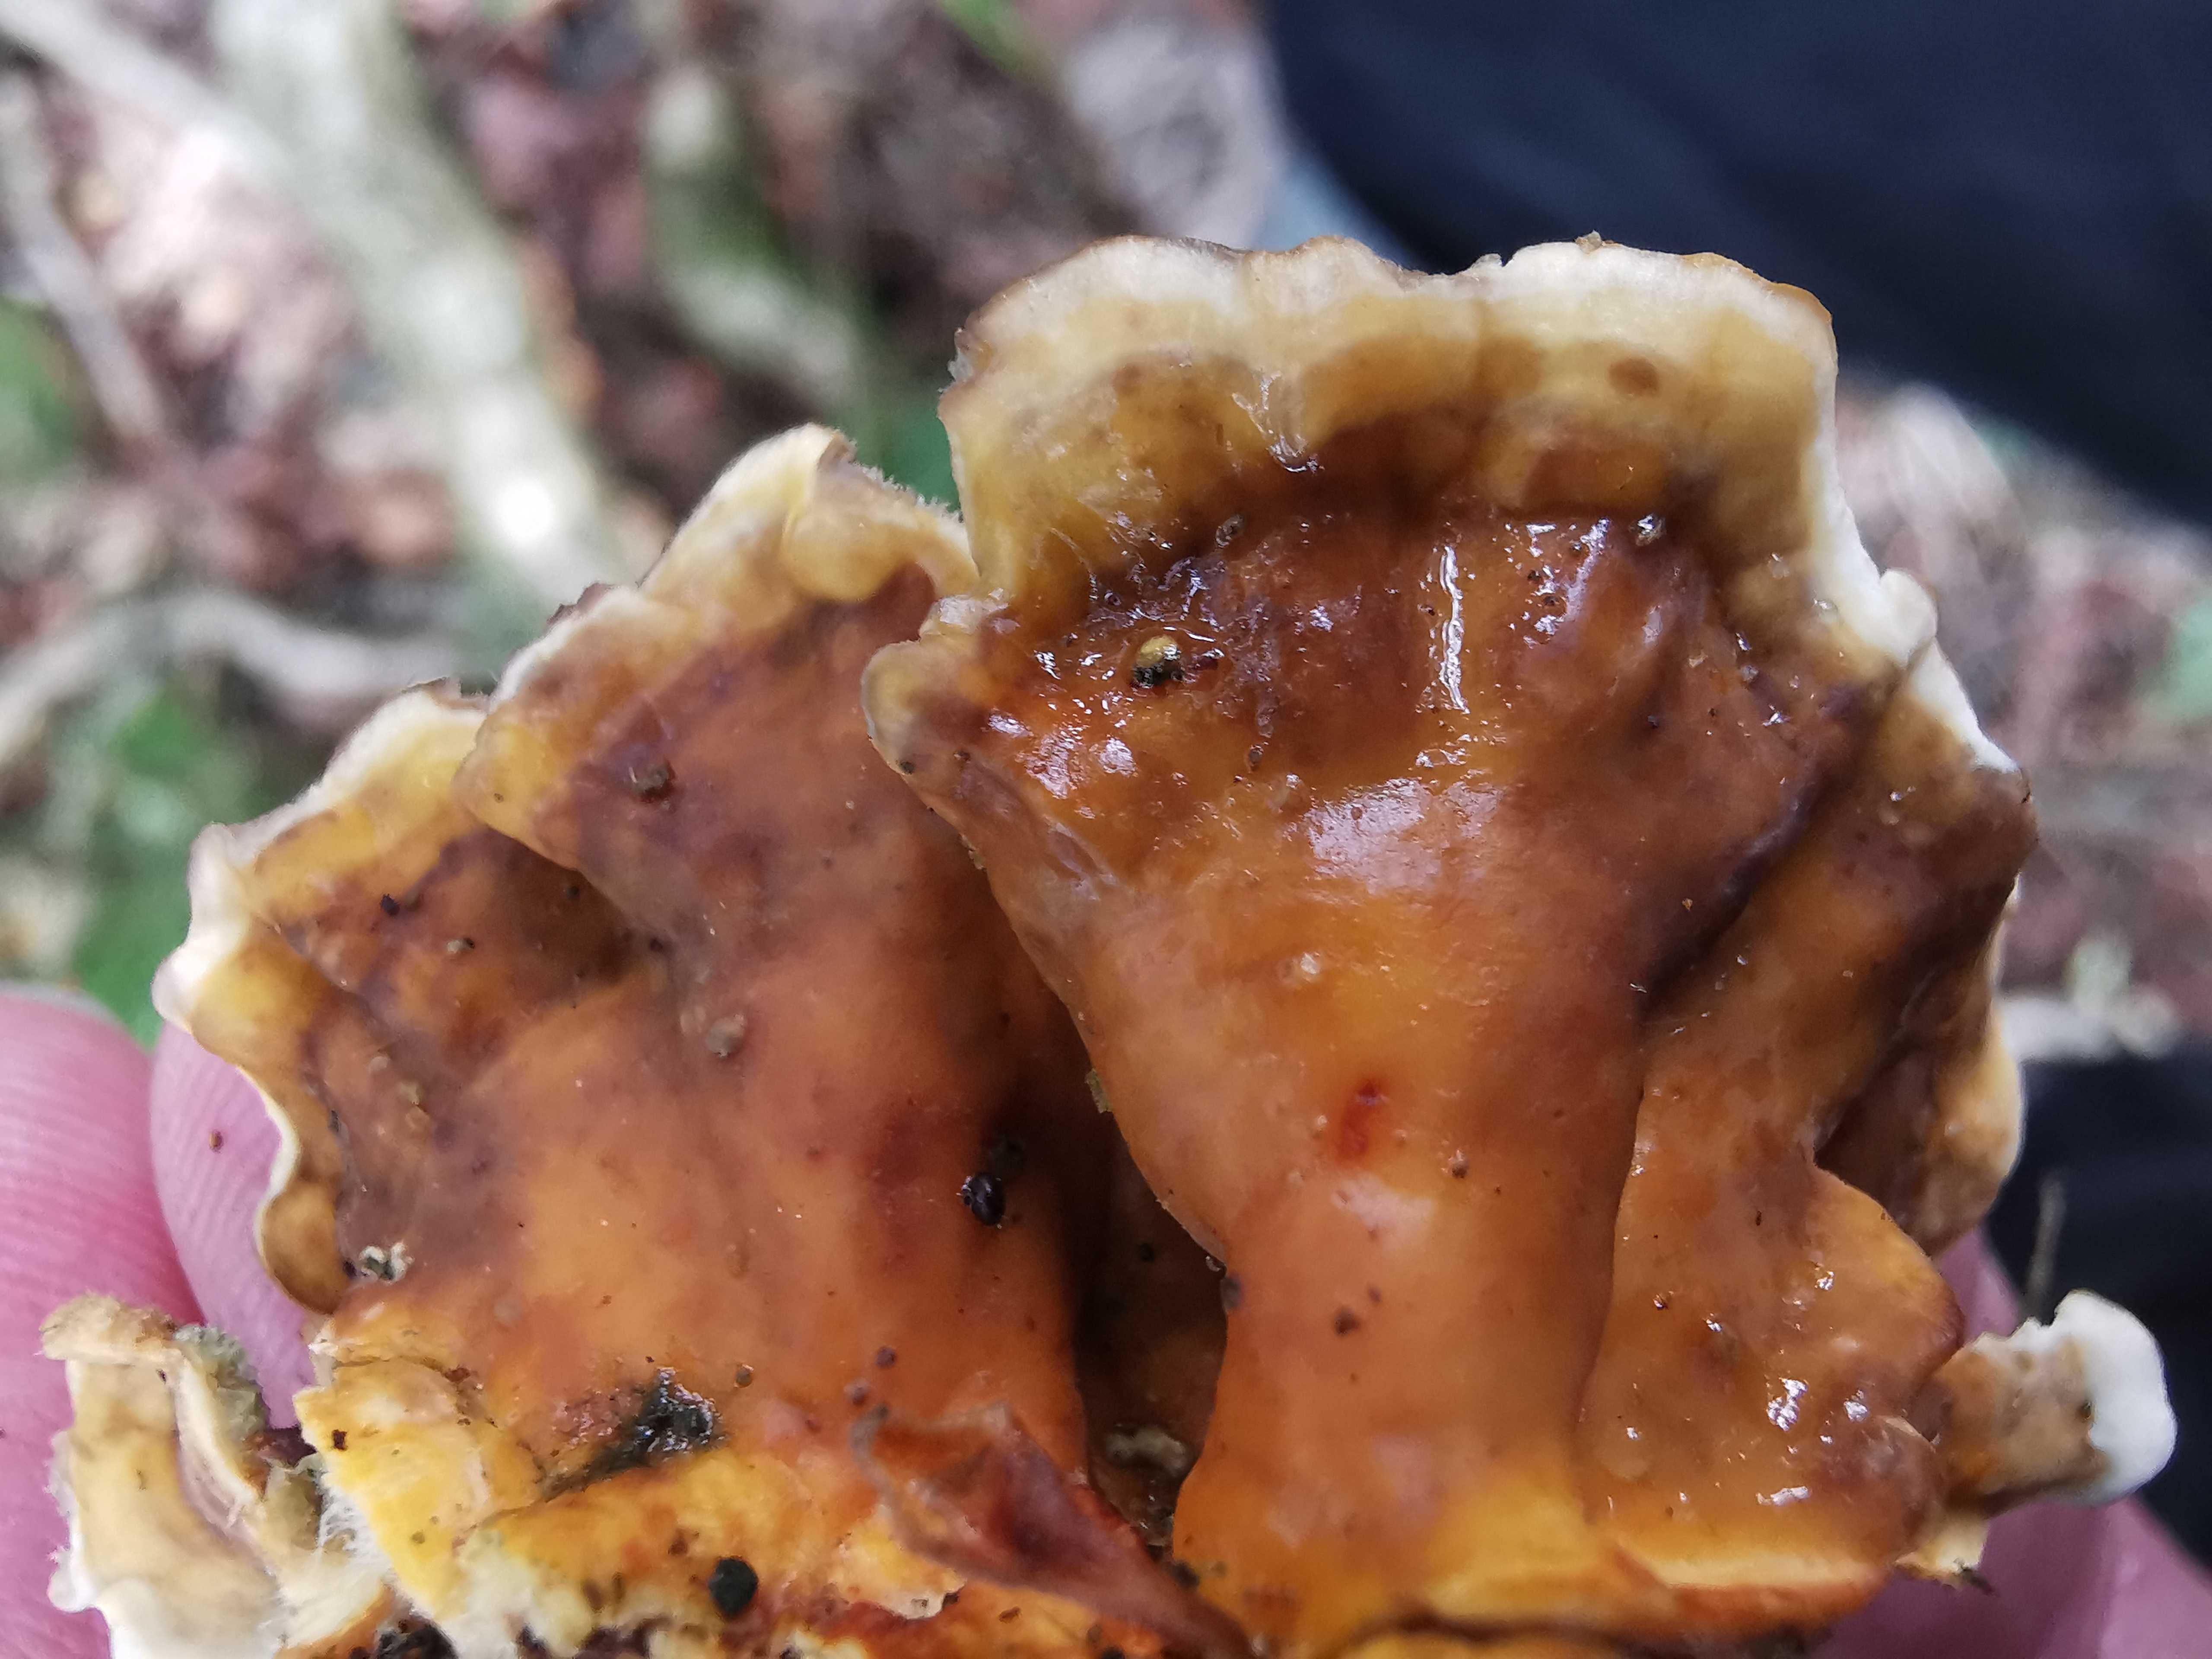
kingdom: Fungi
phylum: Basidiomycota
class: Agaricomycetes
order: Russulales
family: Stereaceae
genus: Stereum
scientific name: Stereum hirsutum
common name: håret lædersvamp
